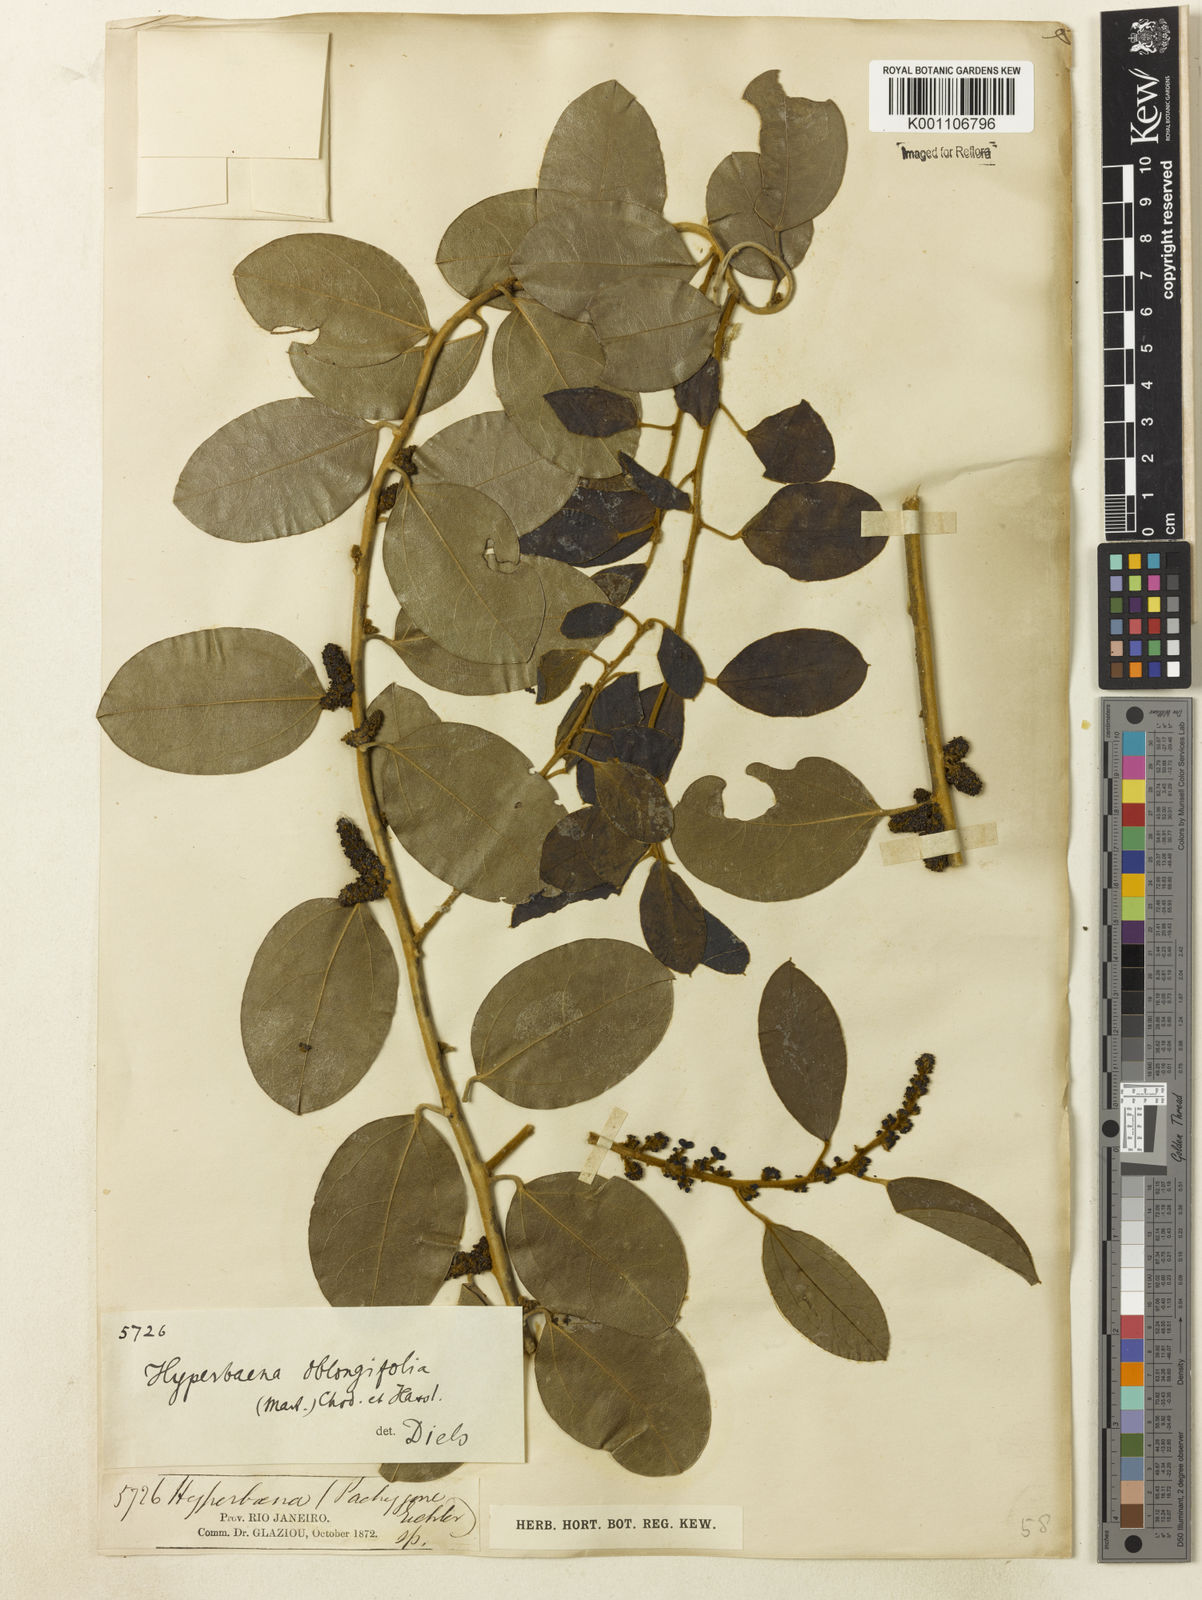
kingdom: Plantae
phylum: Tracheophyta
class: Magnoliopsida
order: Ranunculales
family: Menispermaceae
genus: Hyperbaena
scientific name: Hyperbaena hassleri
